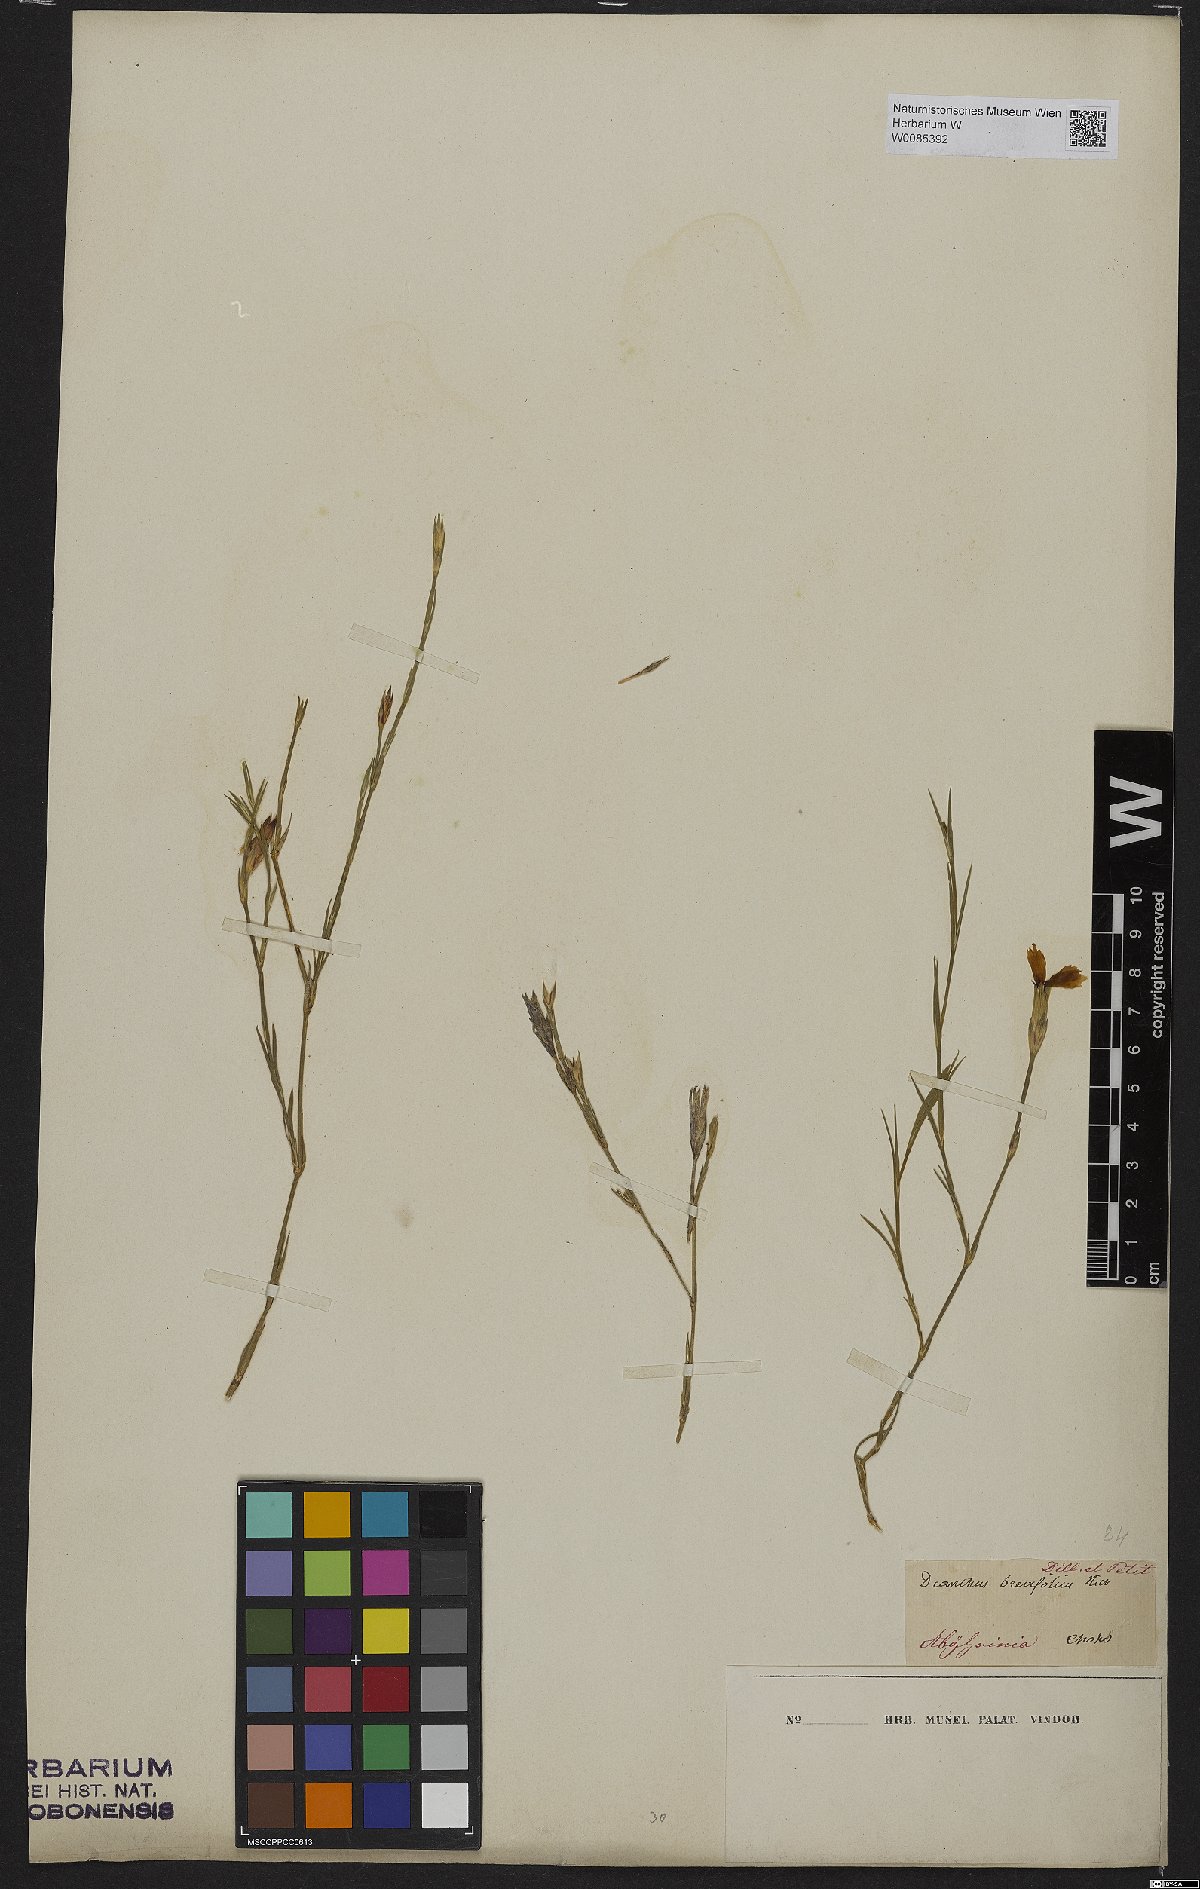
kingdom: Plantae
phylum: Tracheophyta
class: Magnoliopsida
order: Caryophyllales
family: Caryophyllaceae
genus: Dianthus
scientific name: Dianthus pinifolius
